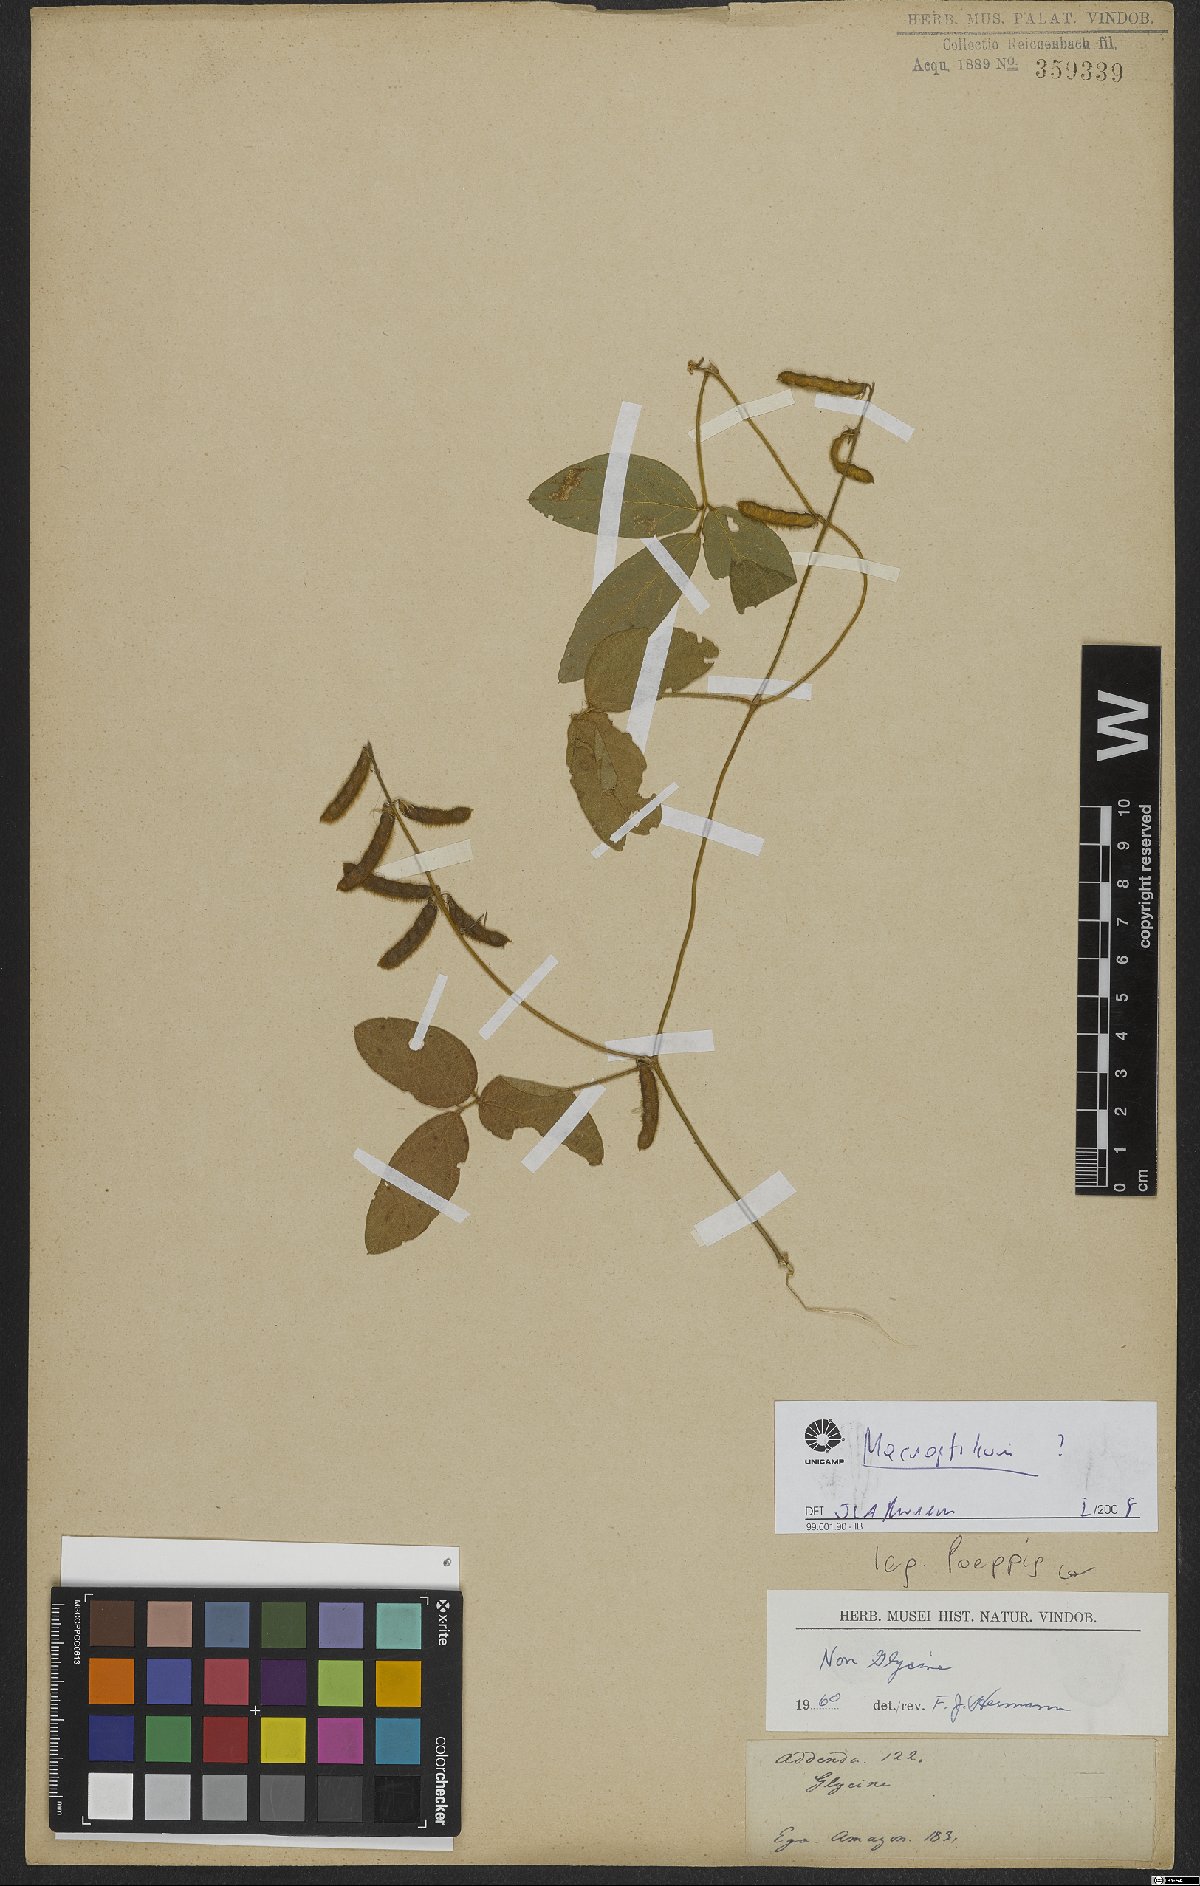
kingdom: Plantae
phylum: Tracheophyta
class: Magnoliopsida
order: Fabales
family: Fabaceae
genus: Macroptilium
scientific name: Macroptilium
